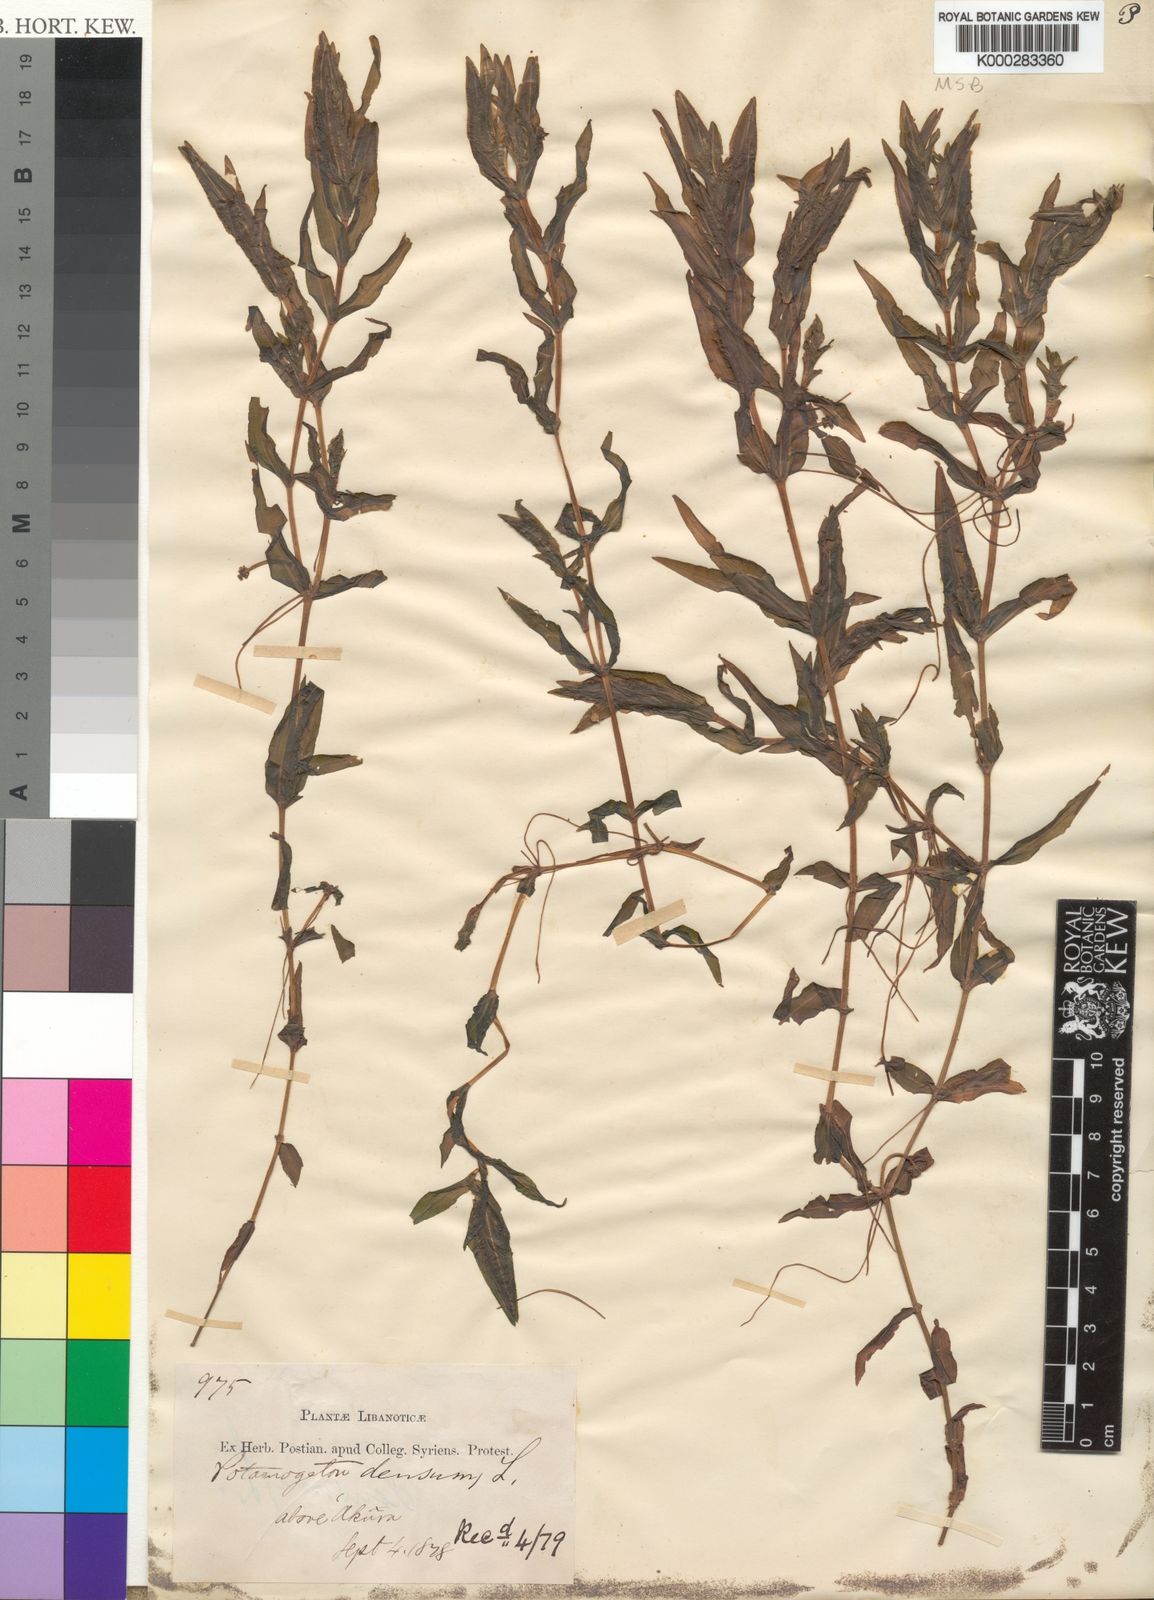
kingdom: Plantae
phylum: Tracheophyta
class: Liliopsida
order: Alismatales
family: Potamogetonaceae
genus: Groenlandia
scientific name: Groenlandia densa
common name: Opposite-leaved pondweed
